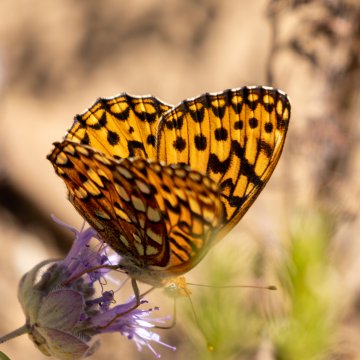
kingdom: Animalia
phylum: Arthropoda
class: Insecta
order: Lepidoptera
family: Nymphalidae
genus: Speyeria
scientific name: Speyeria hydaspe
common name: Hydaspe Fritillary
